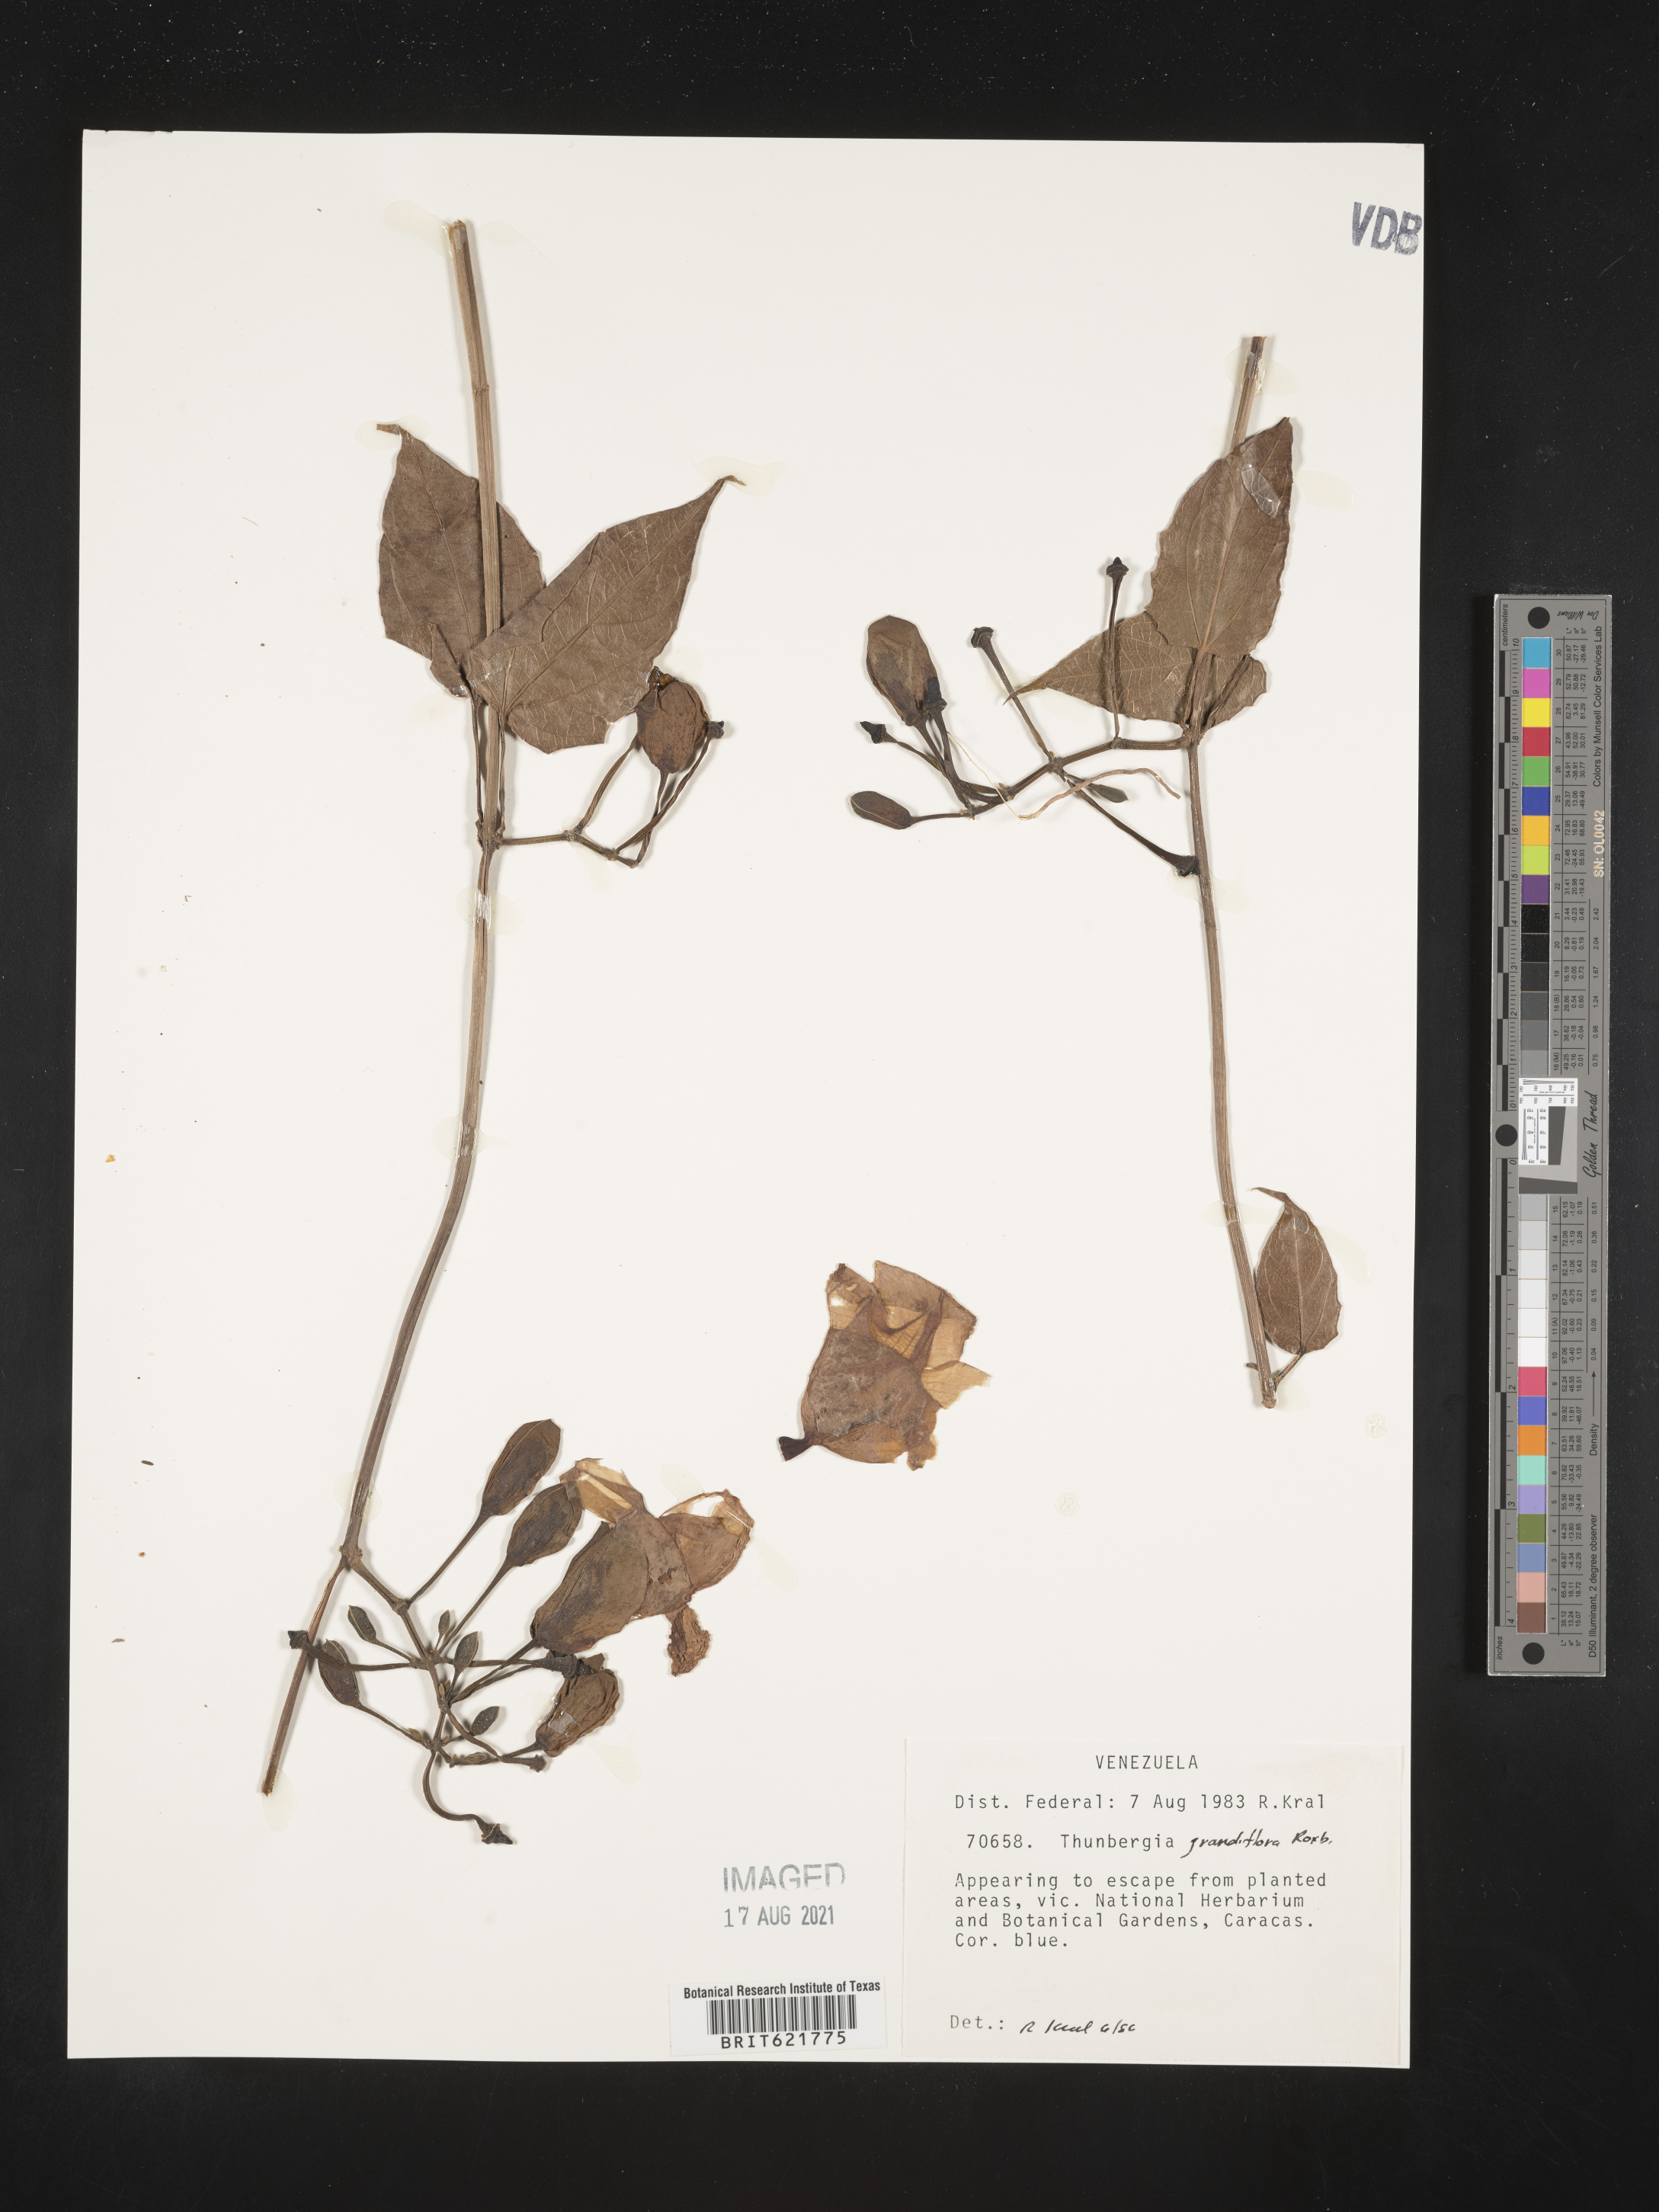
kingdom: Plantae
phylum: Tracheophyta
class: Magnoliopsida
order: Lamiales
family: Acanthaceae
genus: Thunbergia
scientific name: Thunbergia grandiflora
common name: Bengal trumpet
